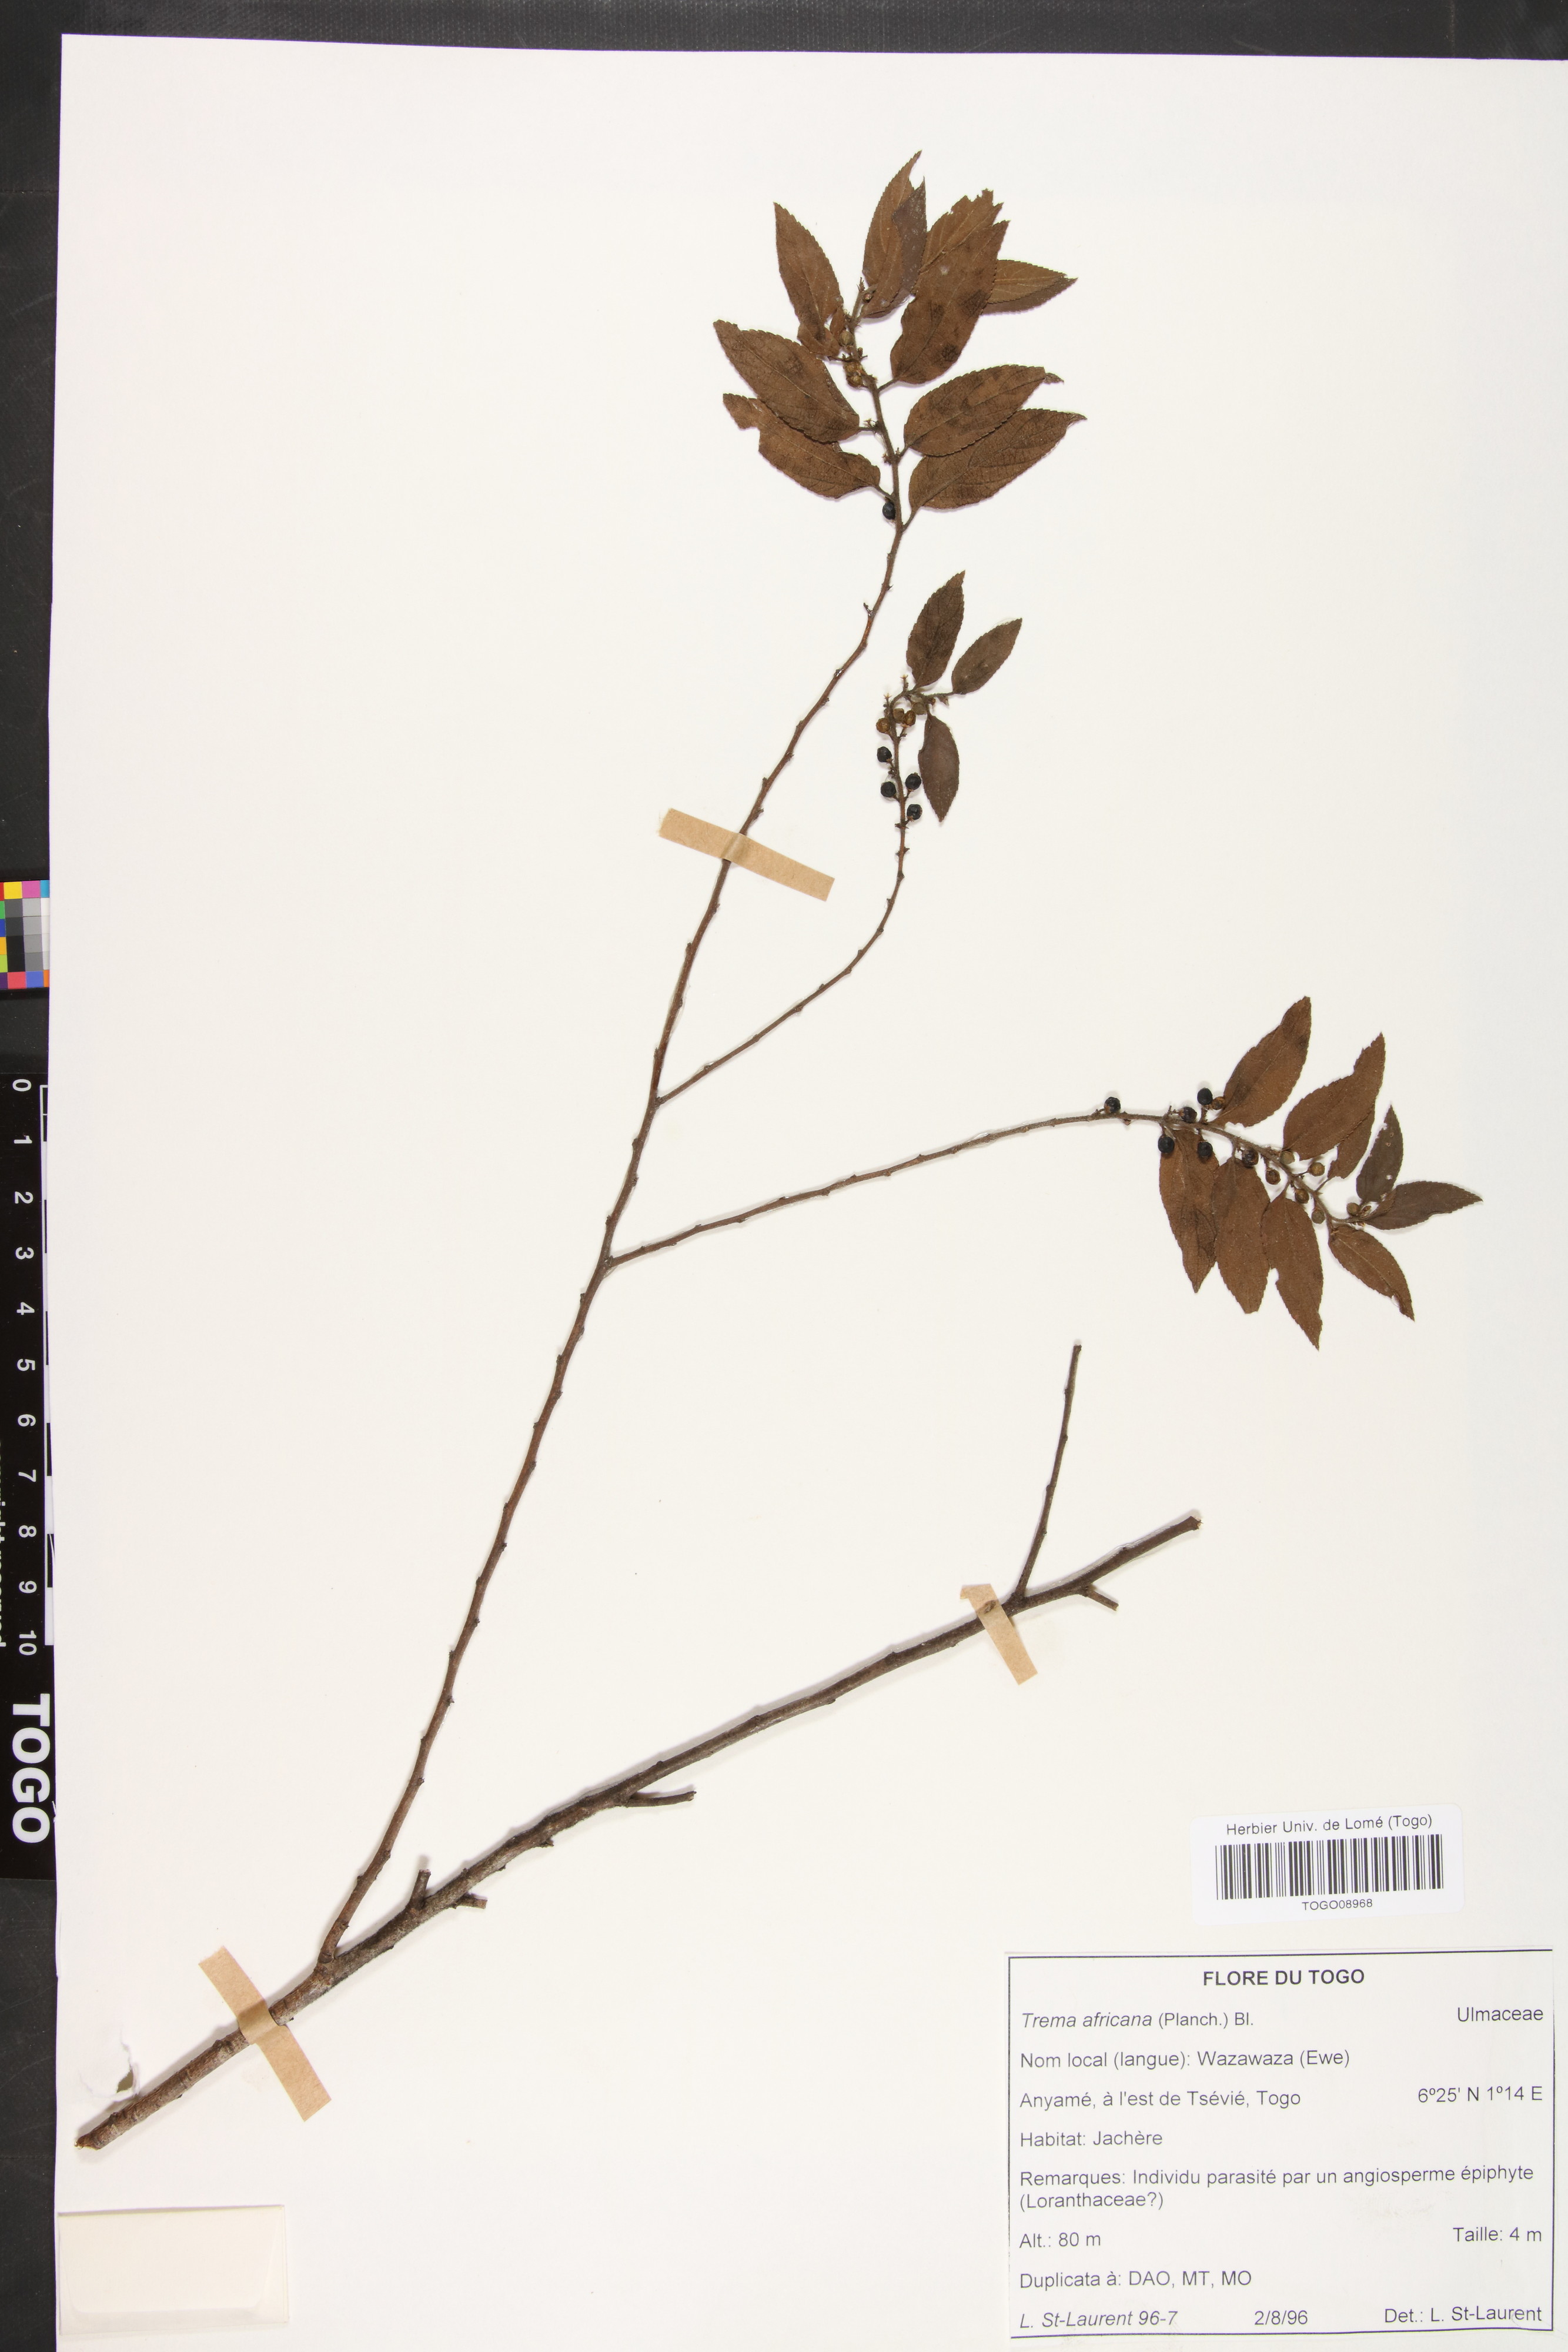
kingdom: Plantae
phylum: Tracheophyta
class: Magnoliopsida
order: Rosales
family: Cannabaceae
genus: Trema
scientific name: Trema orientale
